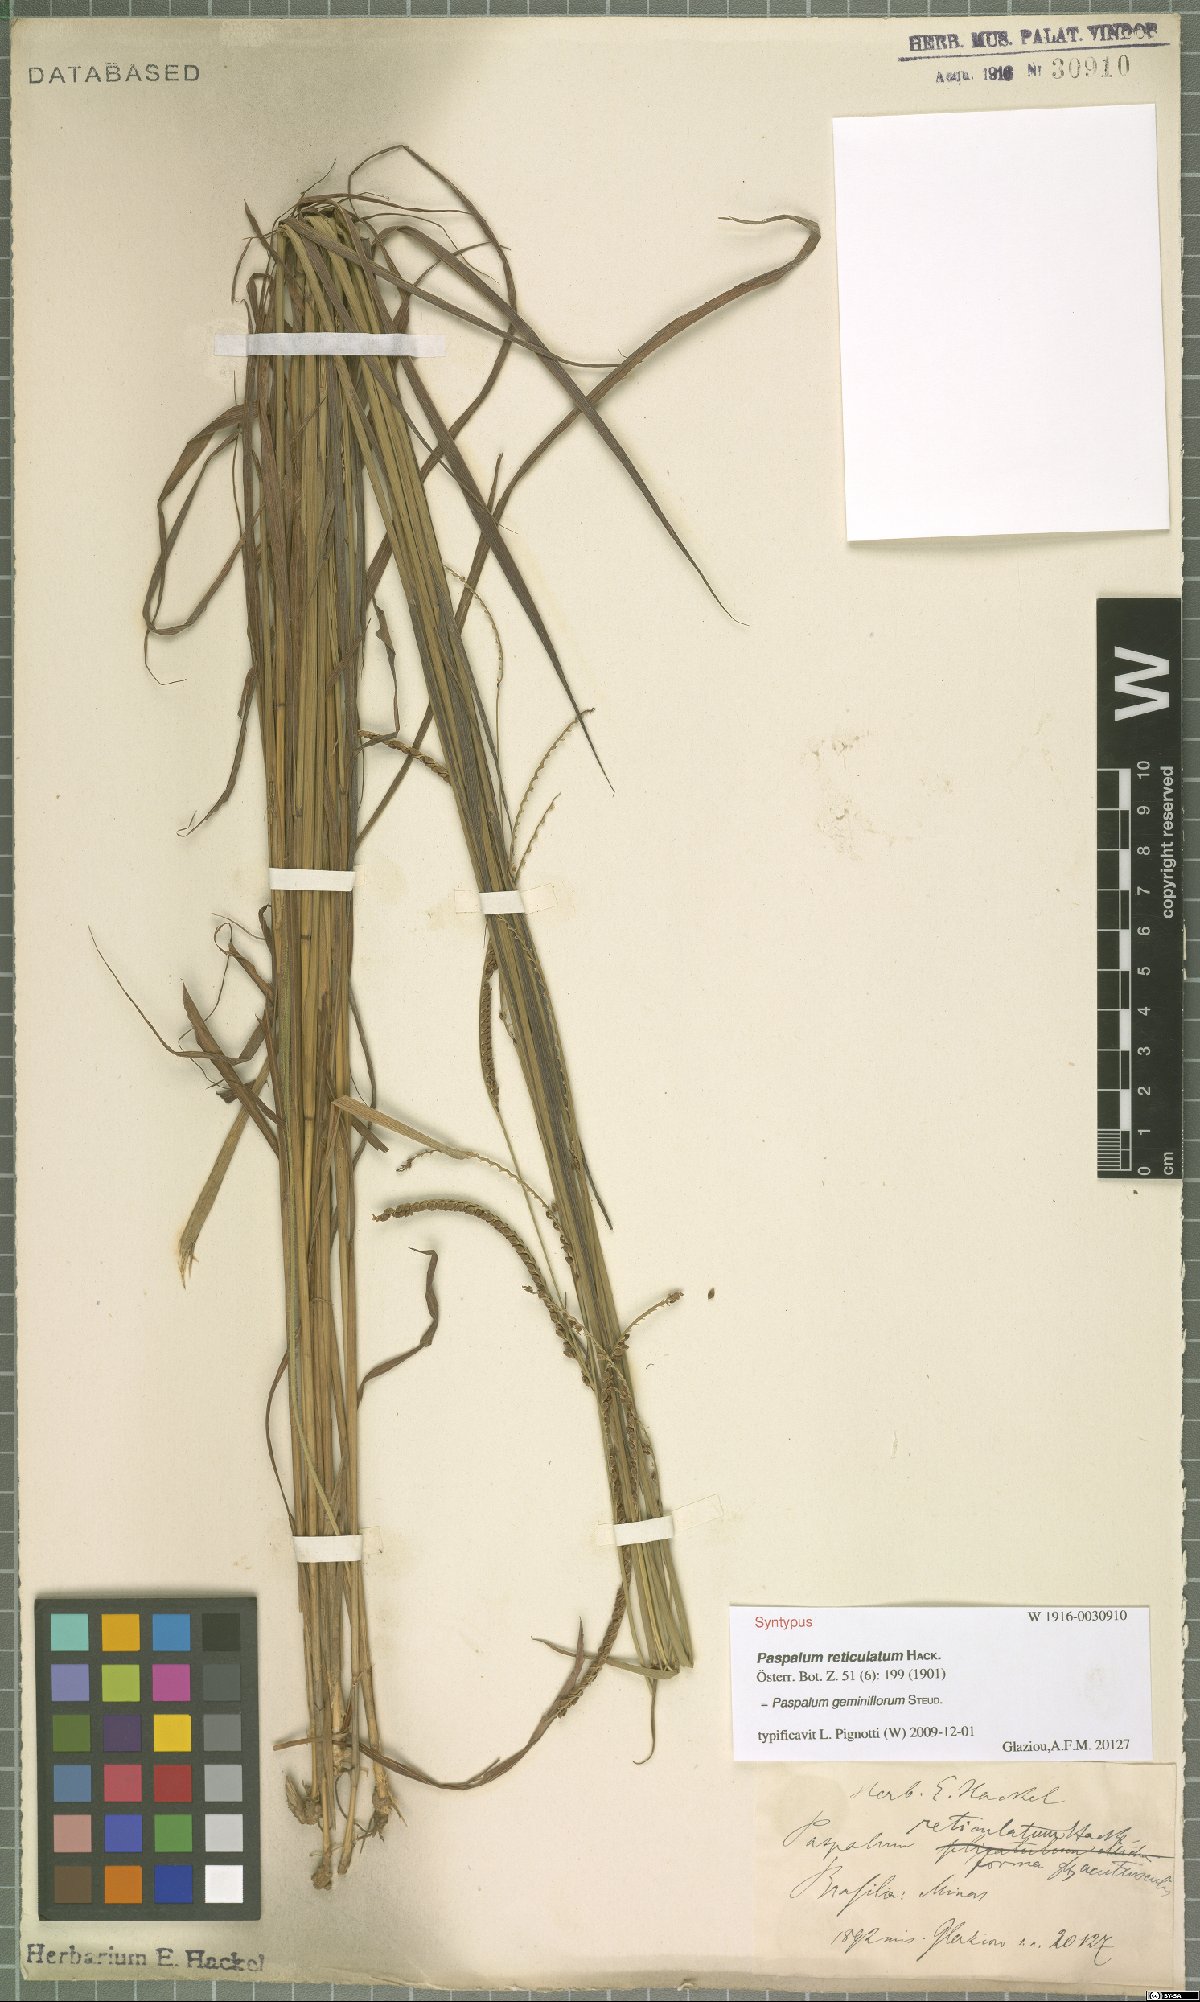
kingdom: Plantae
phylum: Tracheophyta
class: Liliopsida
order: Poales
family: Poaceae
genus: Paspalum
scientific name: Paspalum geminiflorum
